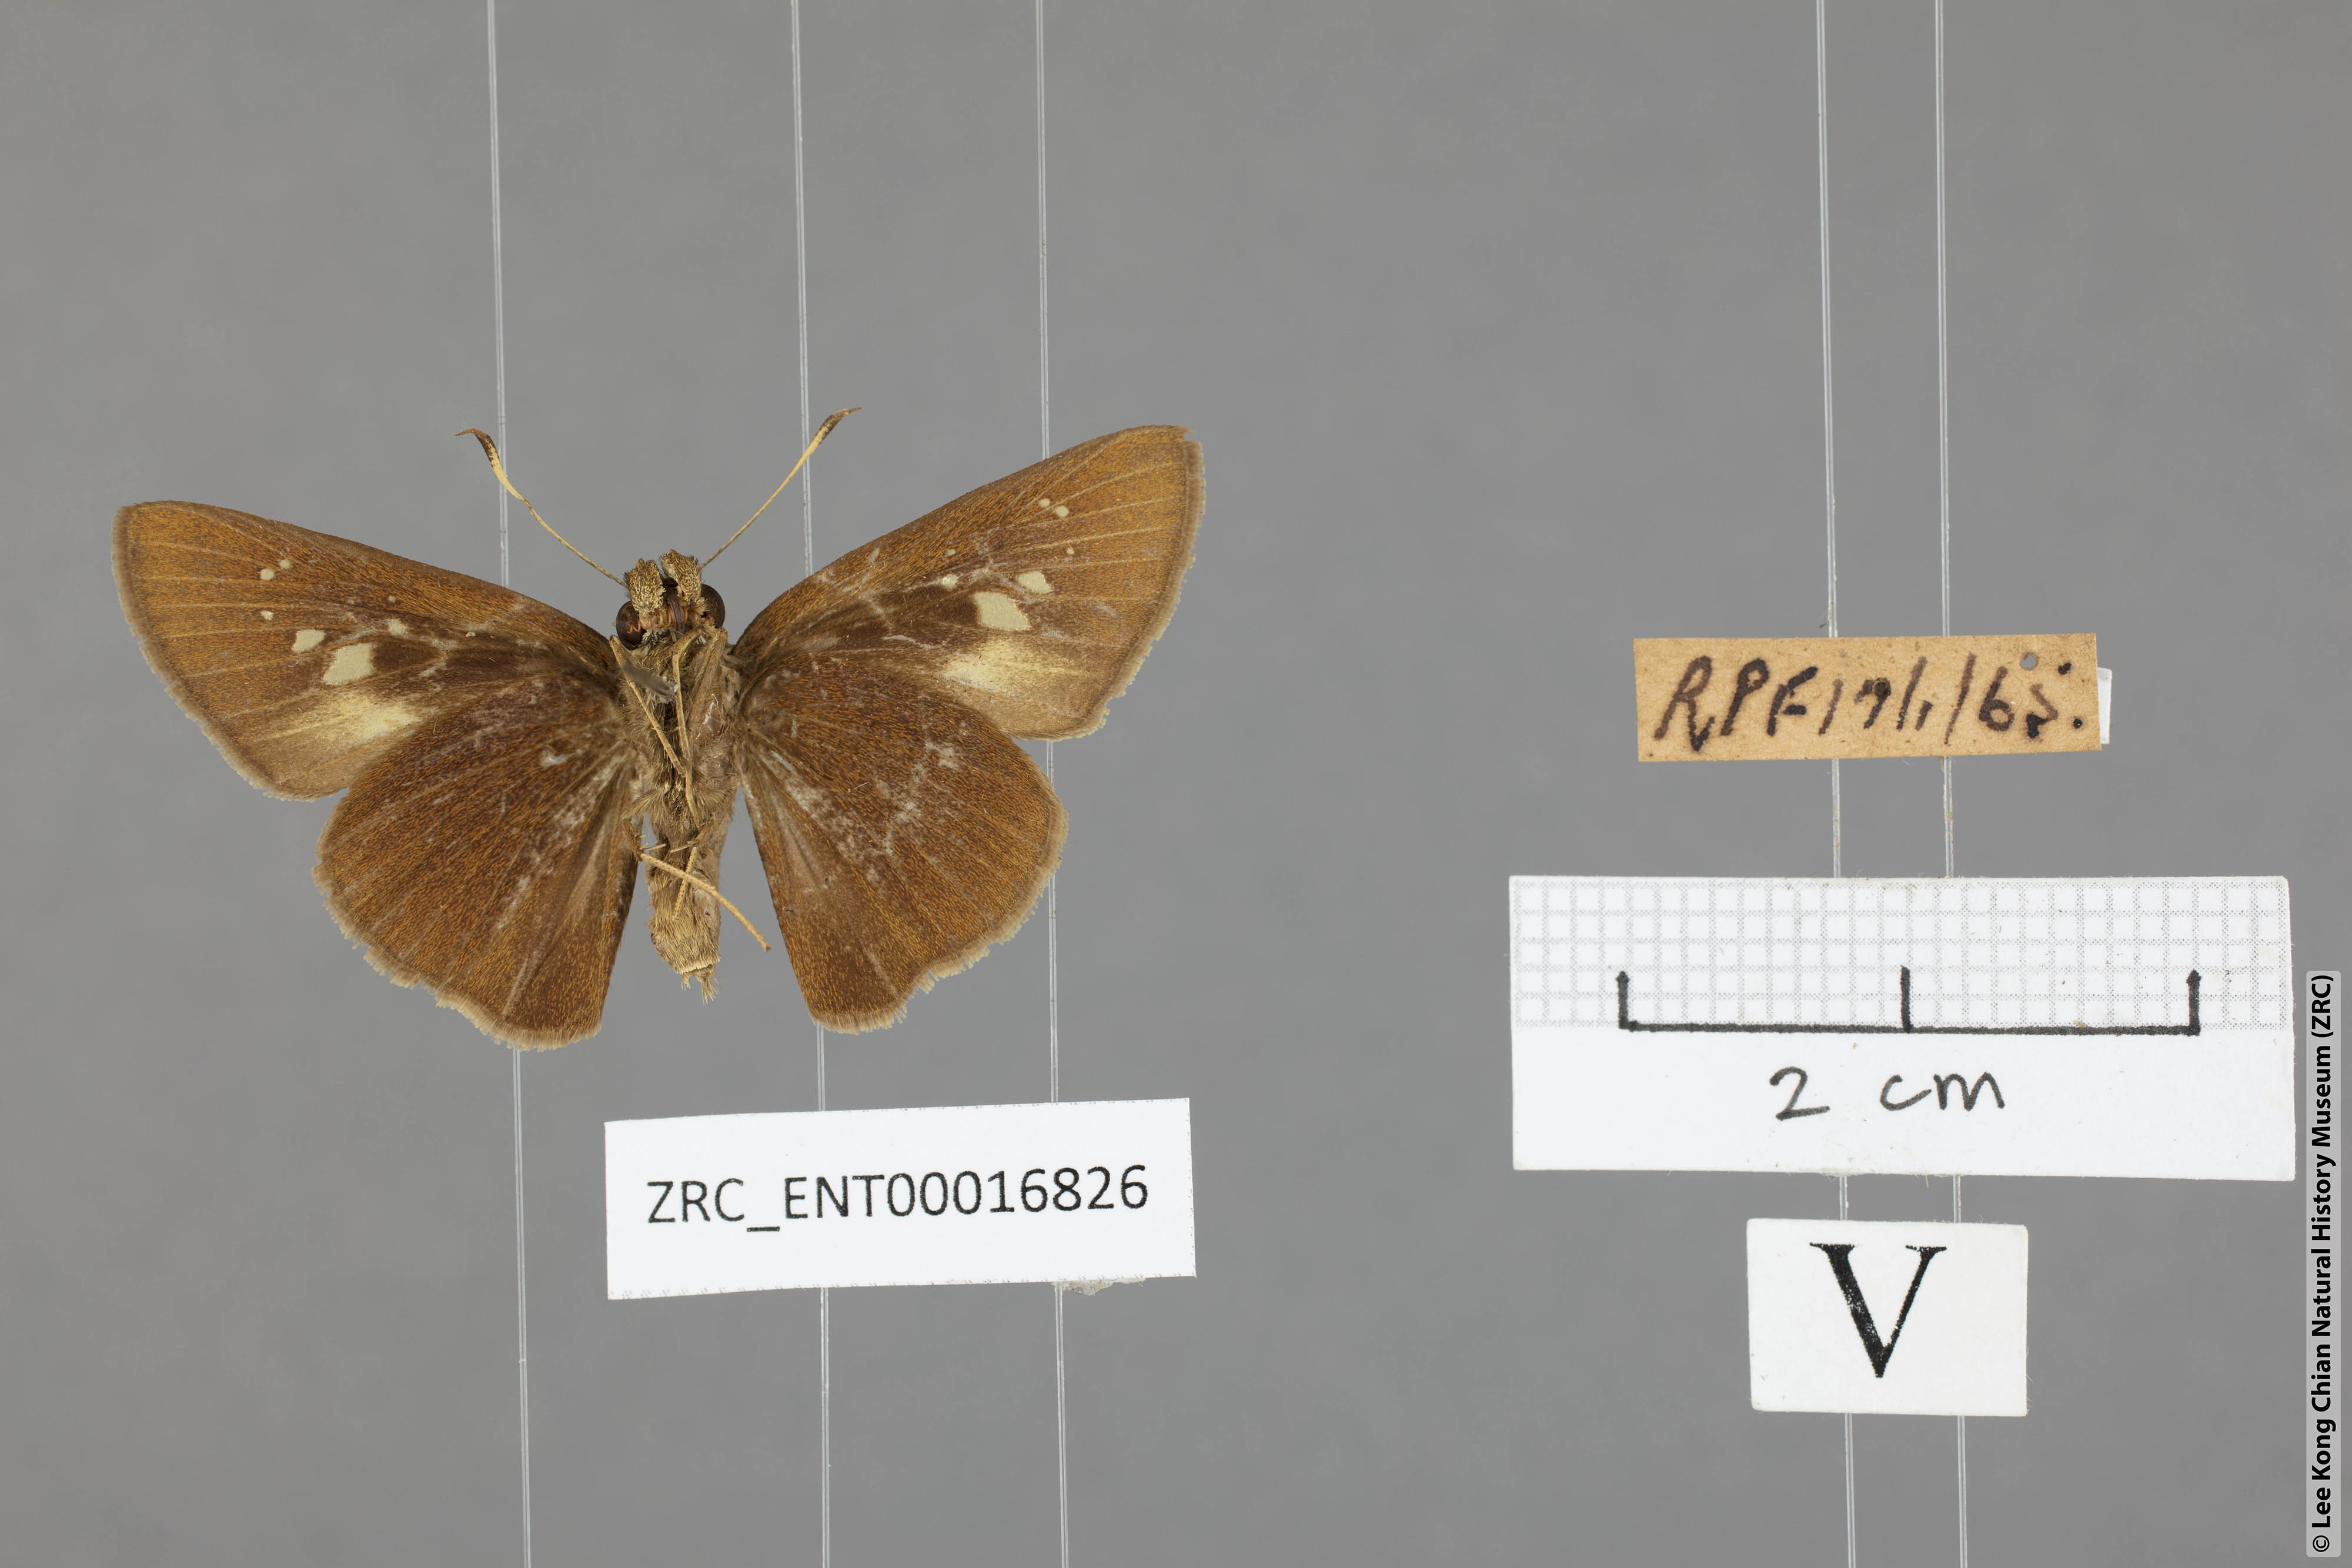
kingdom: Animalia
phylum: Arthropoda
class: Insecta
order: Lepidoptera
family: Hesperiidae
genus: Caltoris
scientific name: Caltoris cormasa
